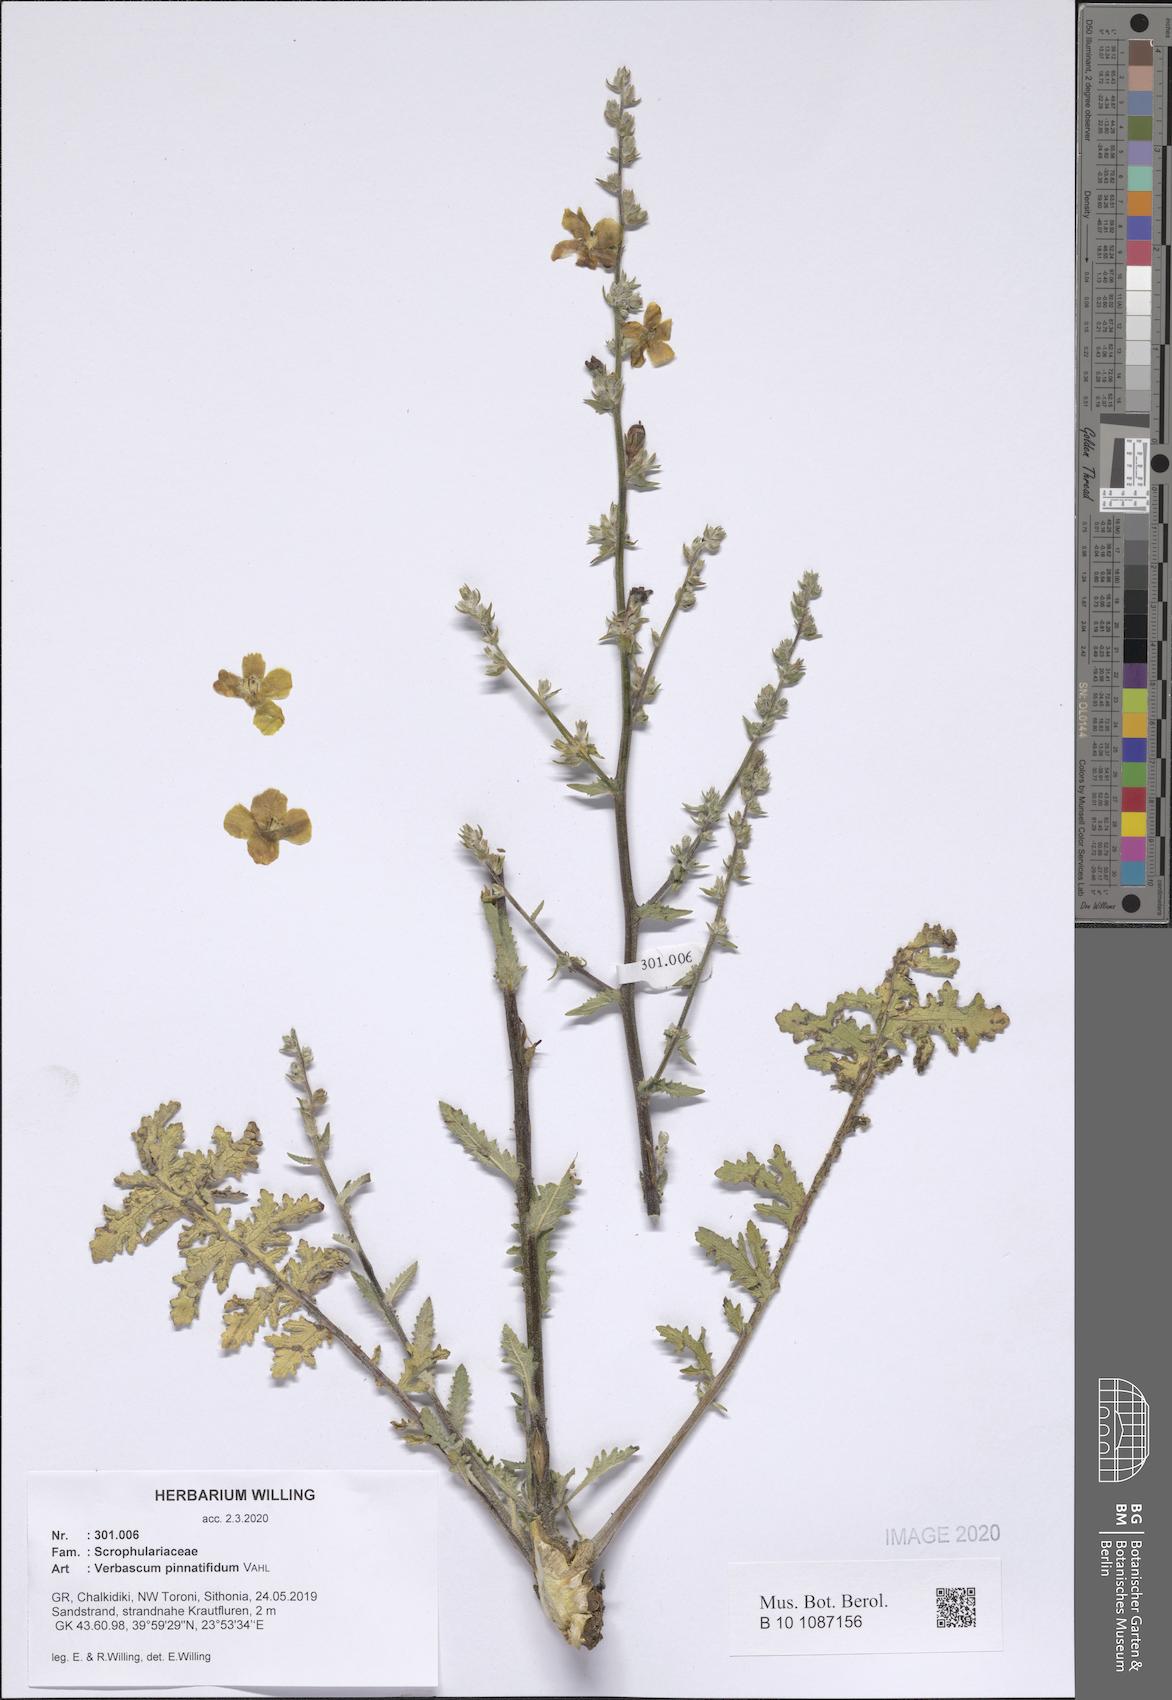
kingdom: Plantae
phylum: Tracheophyta
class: Magnoliopsida
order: Lamiales
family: Scrophulariaceae
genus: Verbascum
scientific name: Verbascum pinnatifidum
